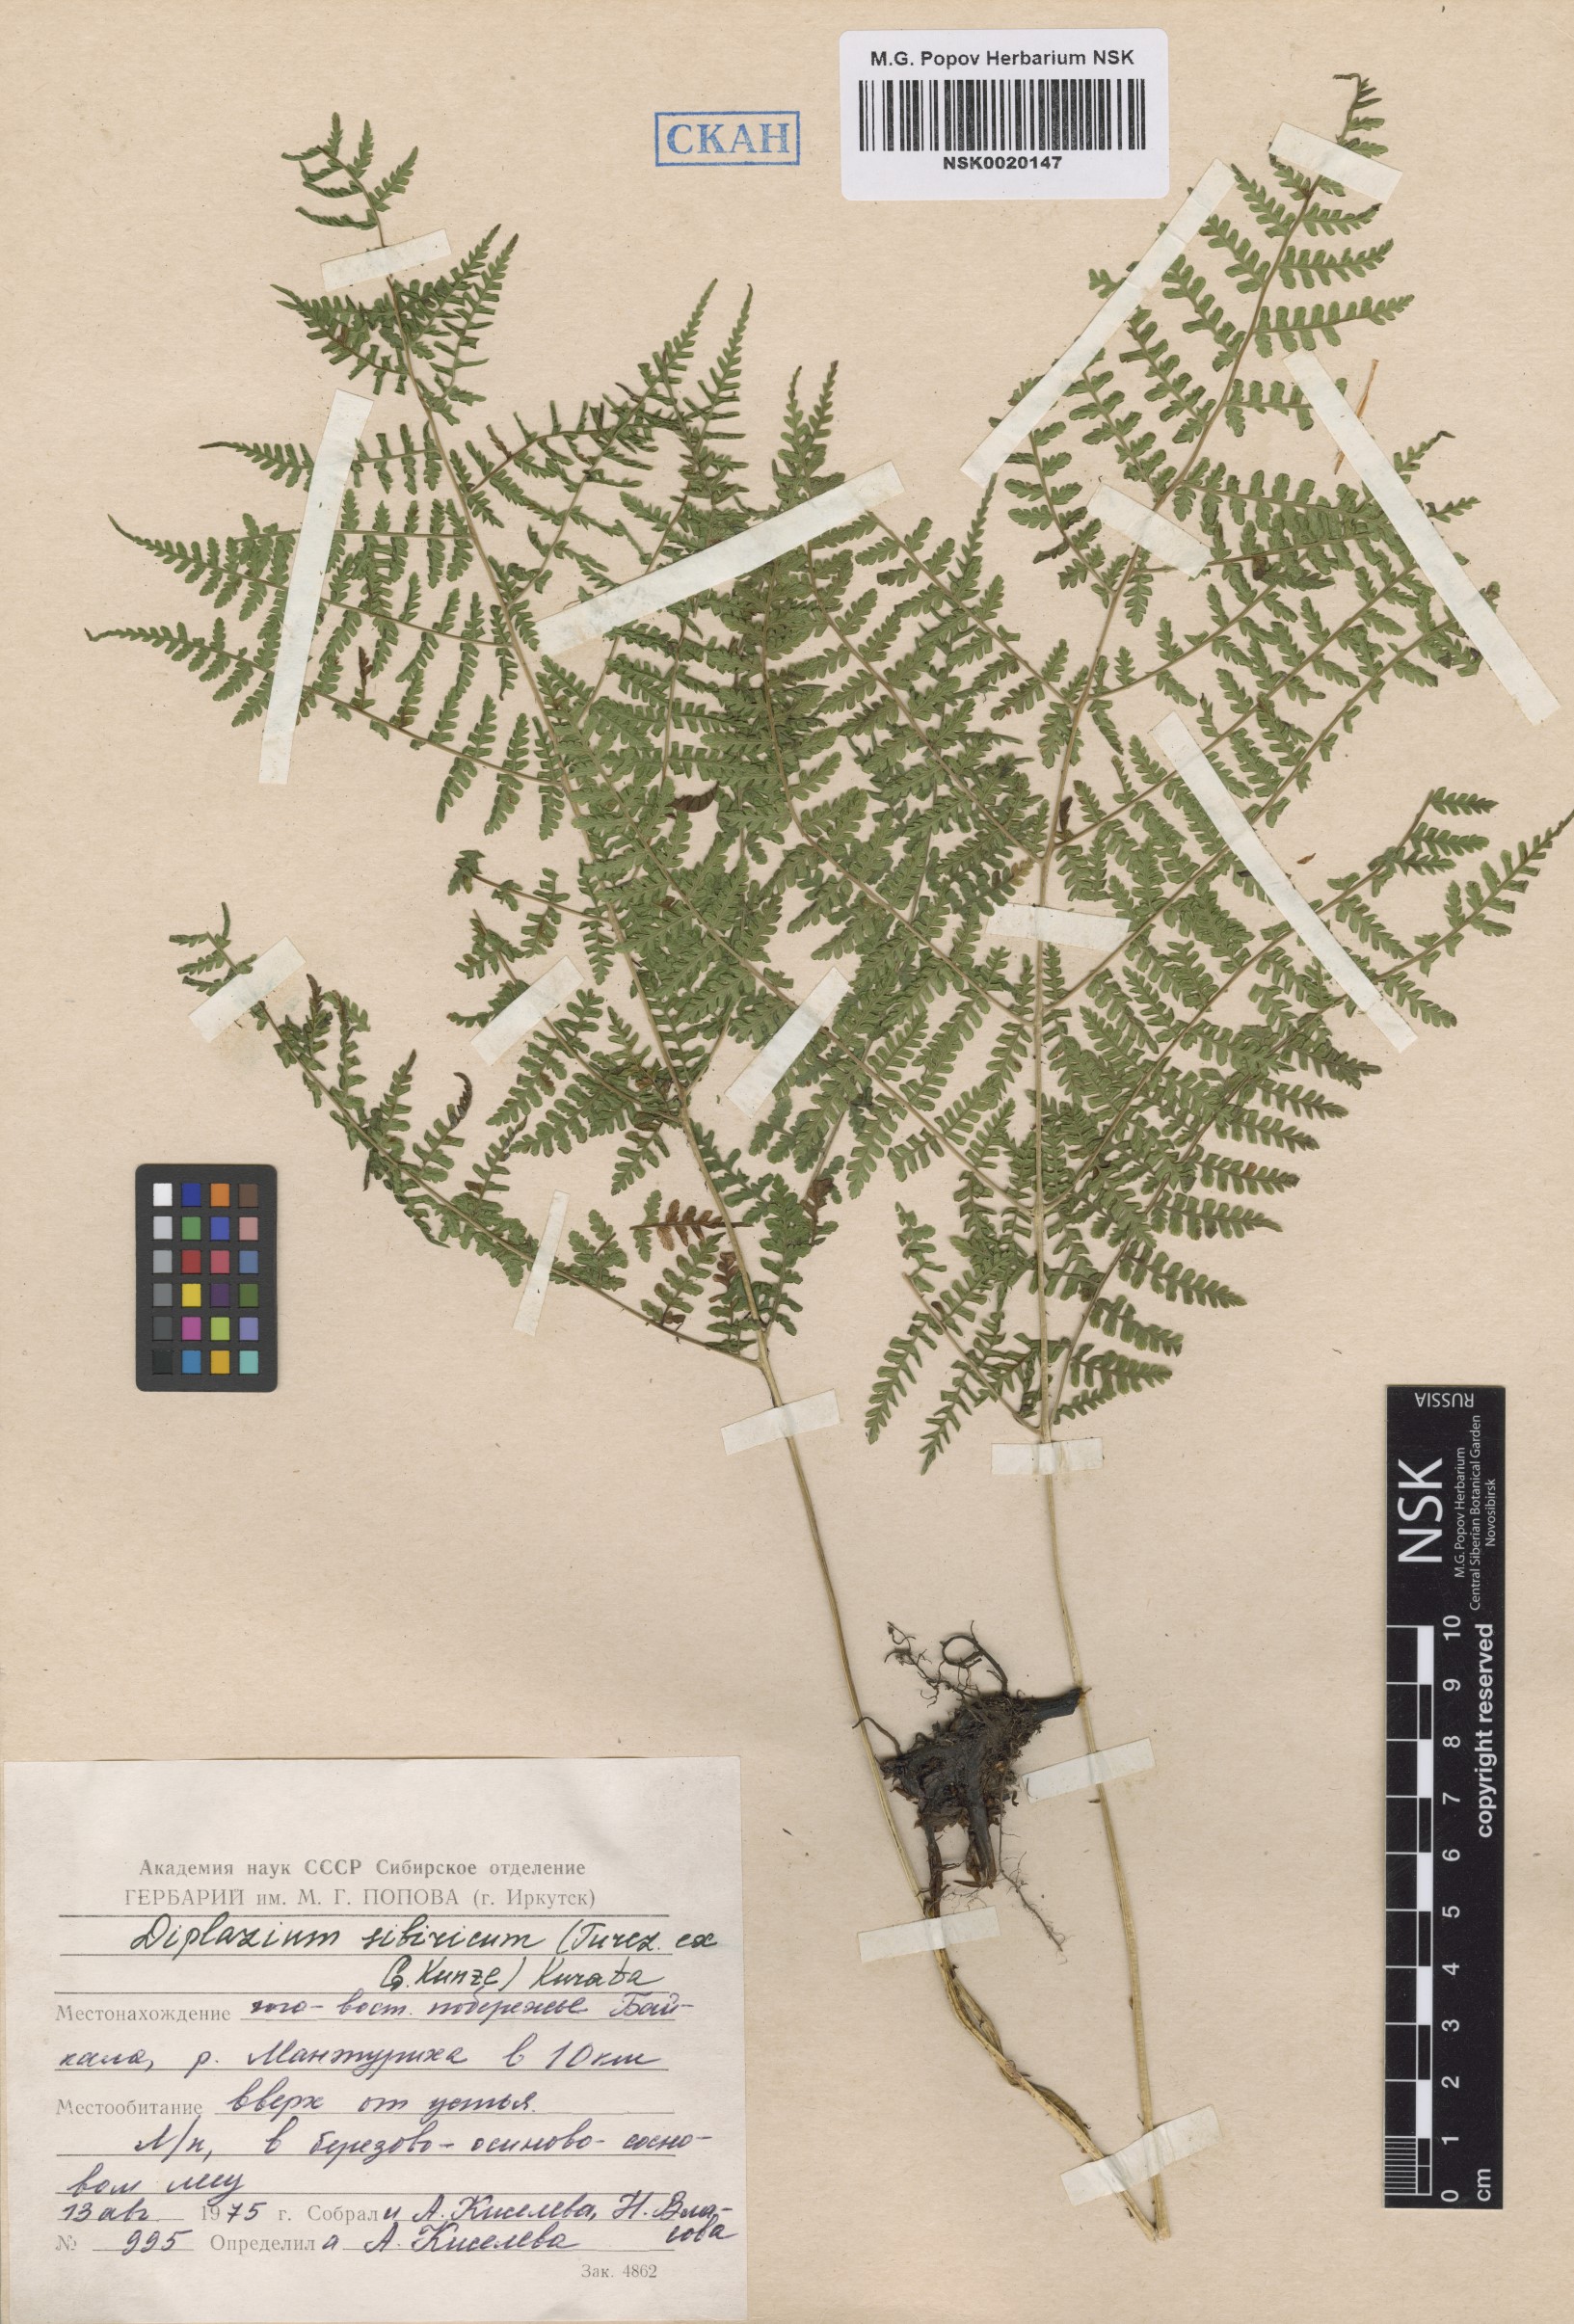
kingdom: Plantae
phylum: Tracheophyta
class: Polypodiopsida
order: Polypodiales
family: Athyriaceae
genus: Diplazium
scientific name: Diplazium sibiricum
